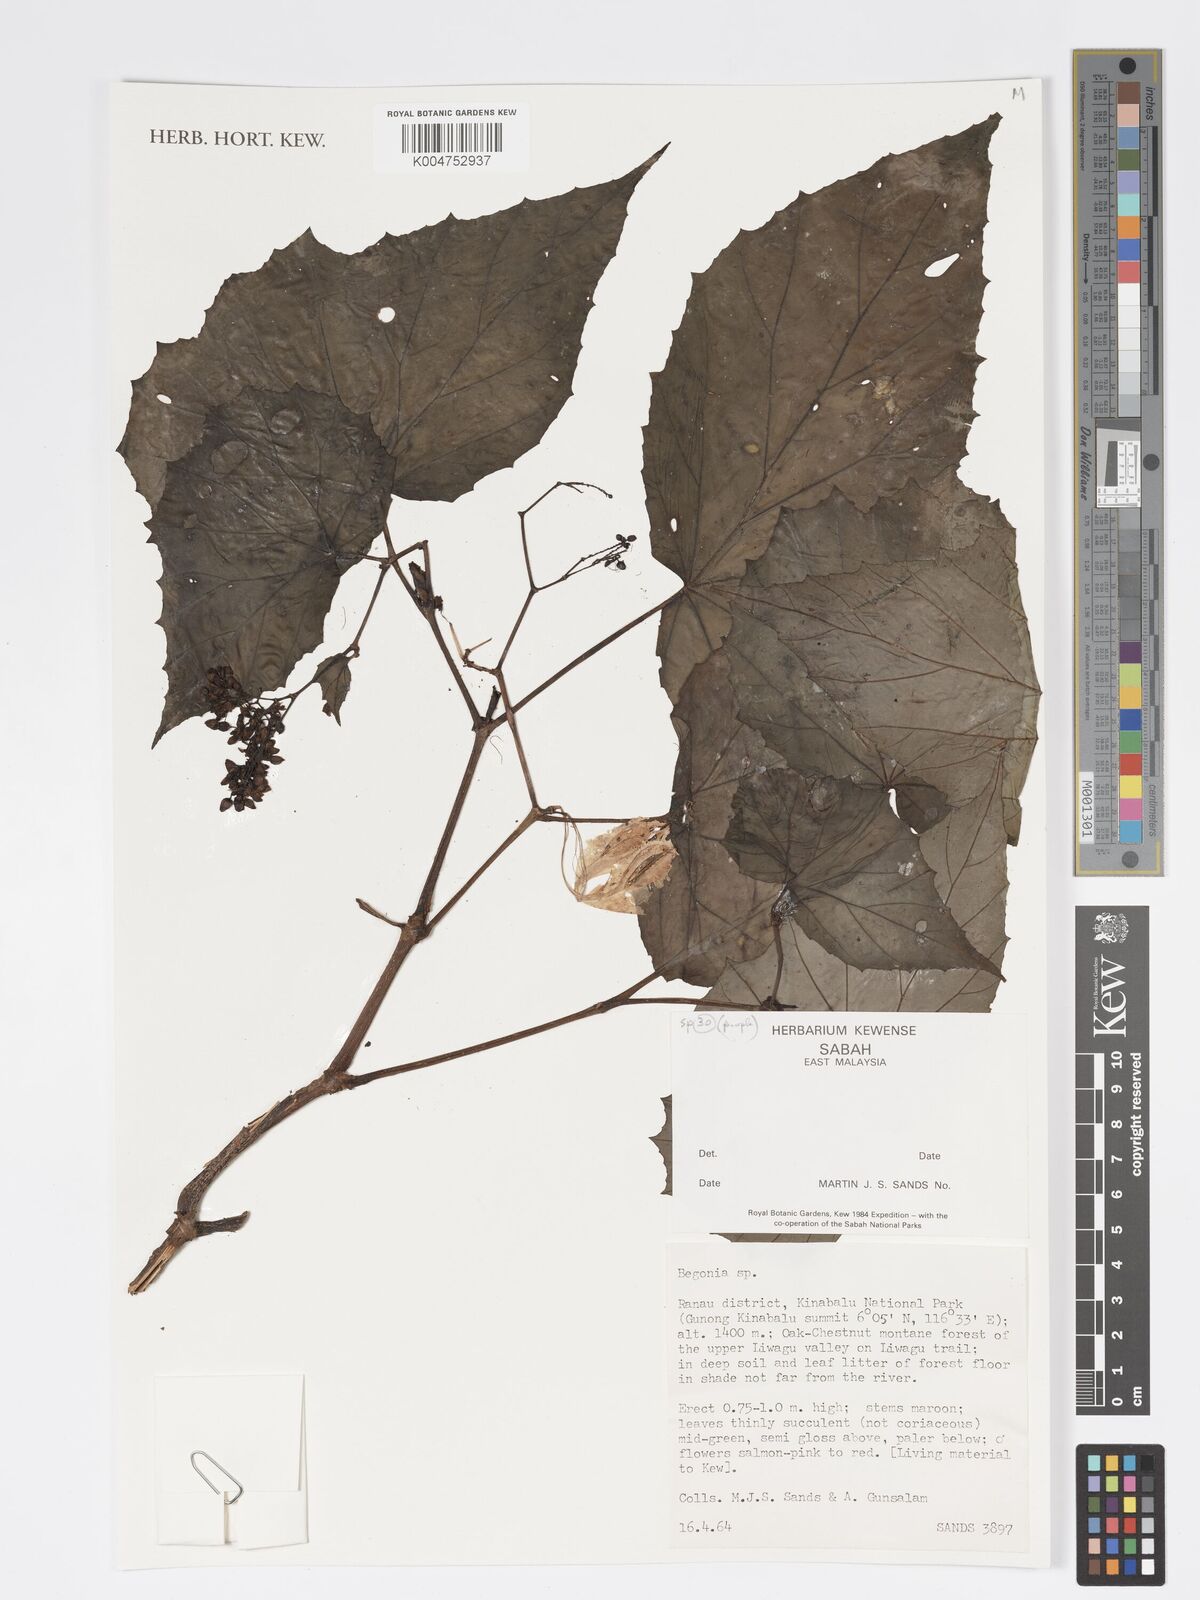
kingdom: Plantae
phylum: Tracheophyta
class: Magnoliopsida
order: Cucurbitales
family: Begoniaceae
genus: Begonia
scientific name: Begonia
